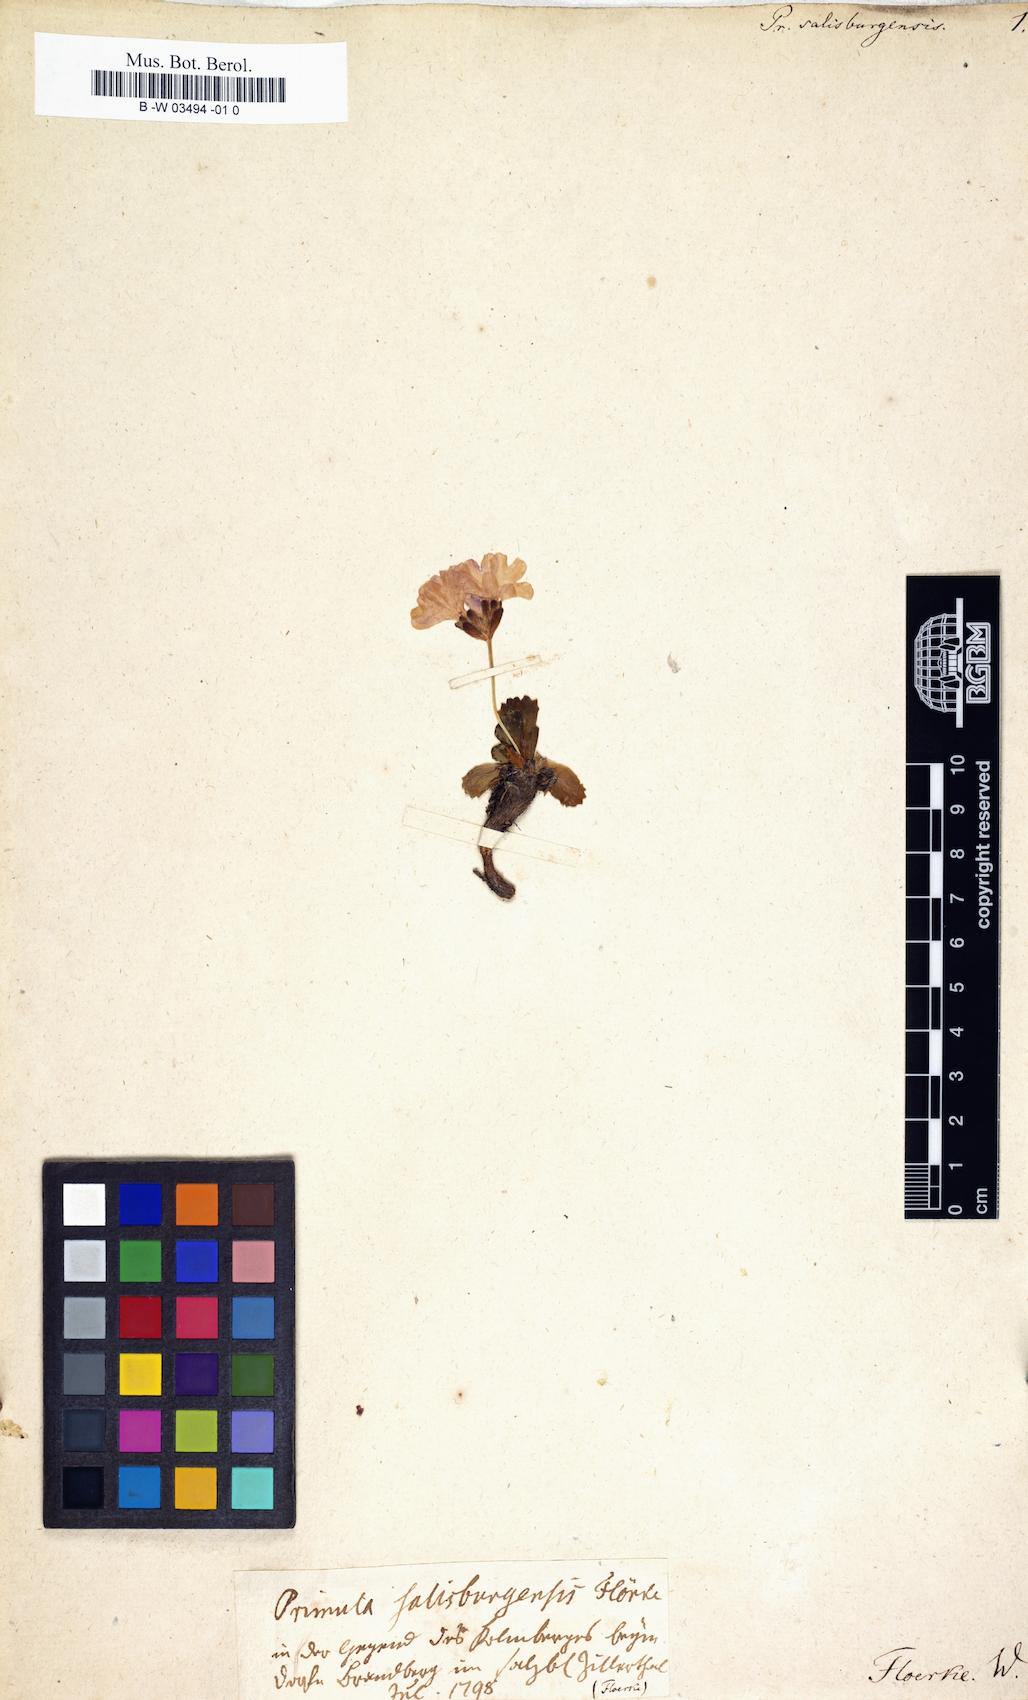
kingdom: Plantae
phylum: Tracheophyta
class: Magnoliopsida
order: Ericales
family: Primulaceae
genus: Primula
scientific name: Primula floerkeana
